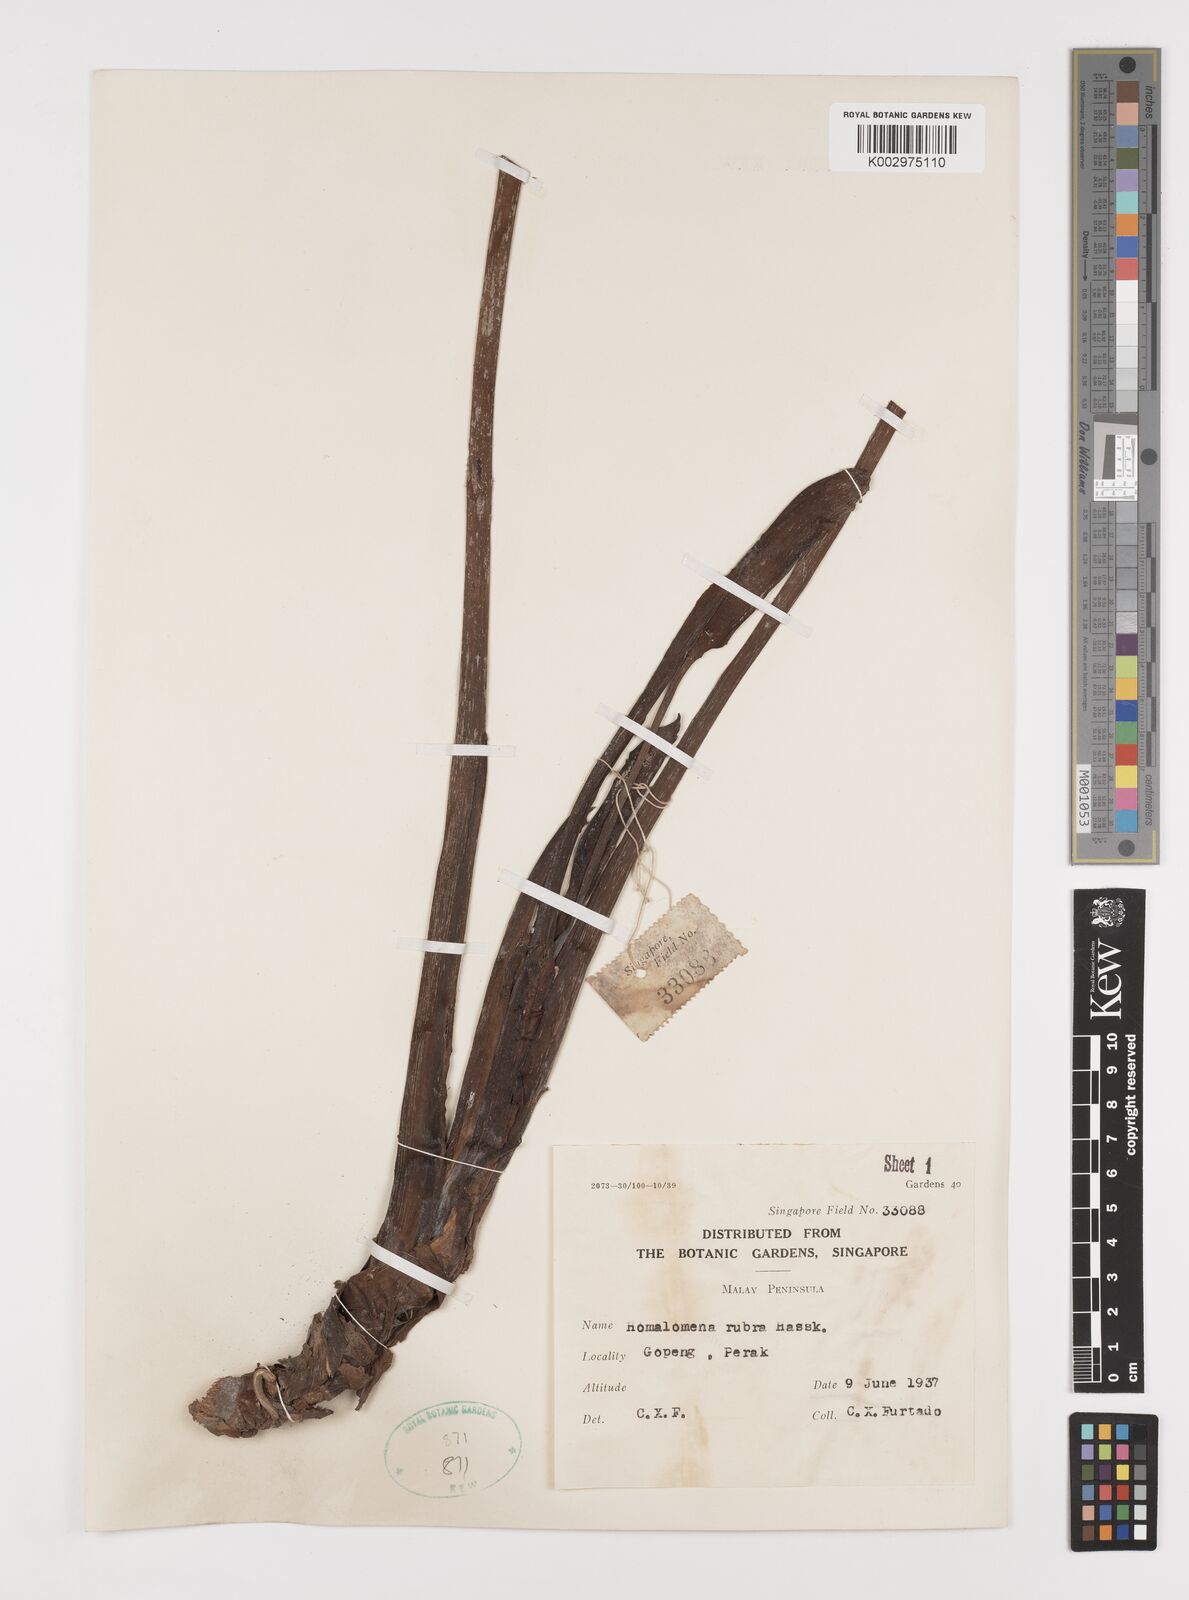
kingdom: Plantae
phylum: Tracheophyta
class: Liliopsida
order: Alismatales
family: Araceae
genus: Homalomena
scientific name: Homalomena pendula
